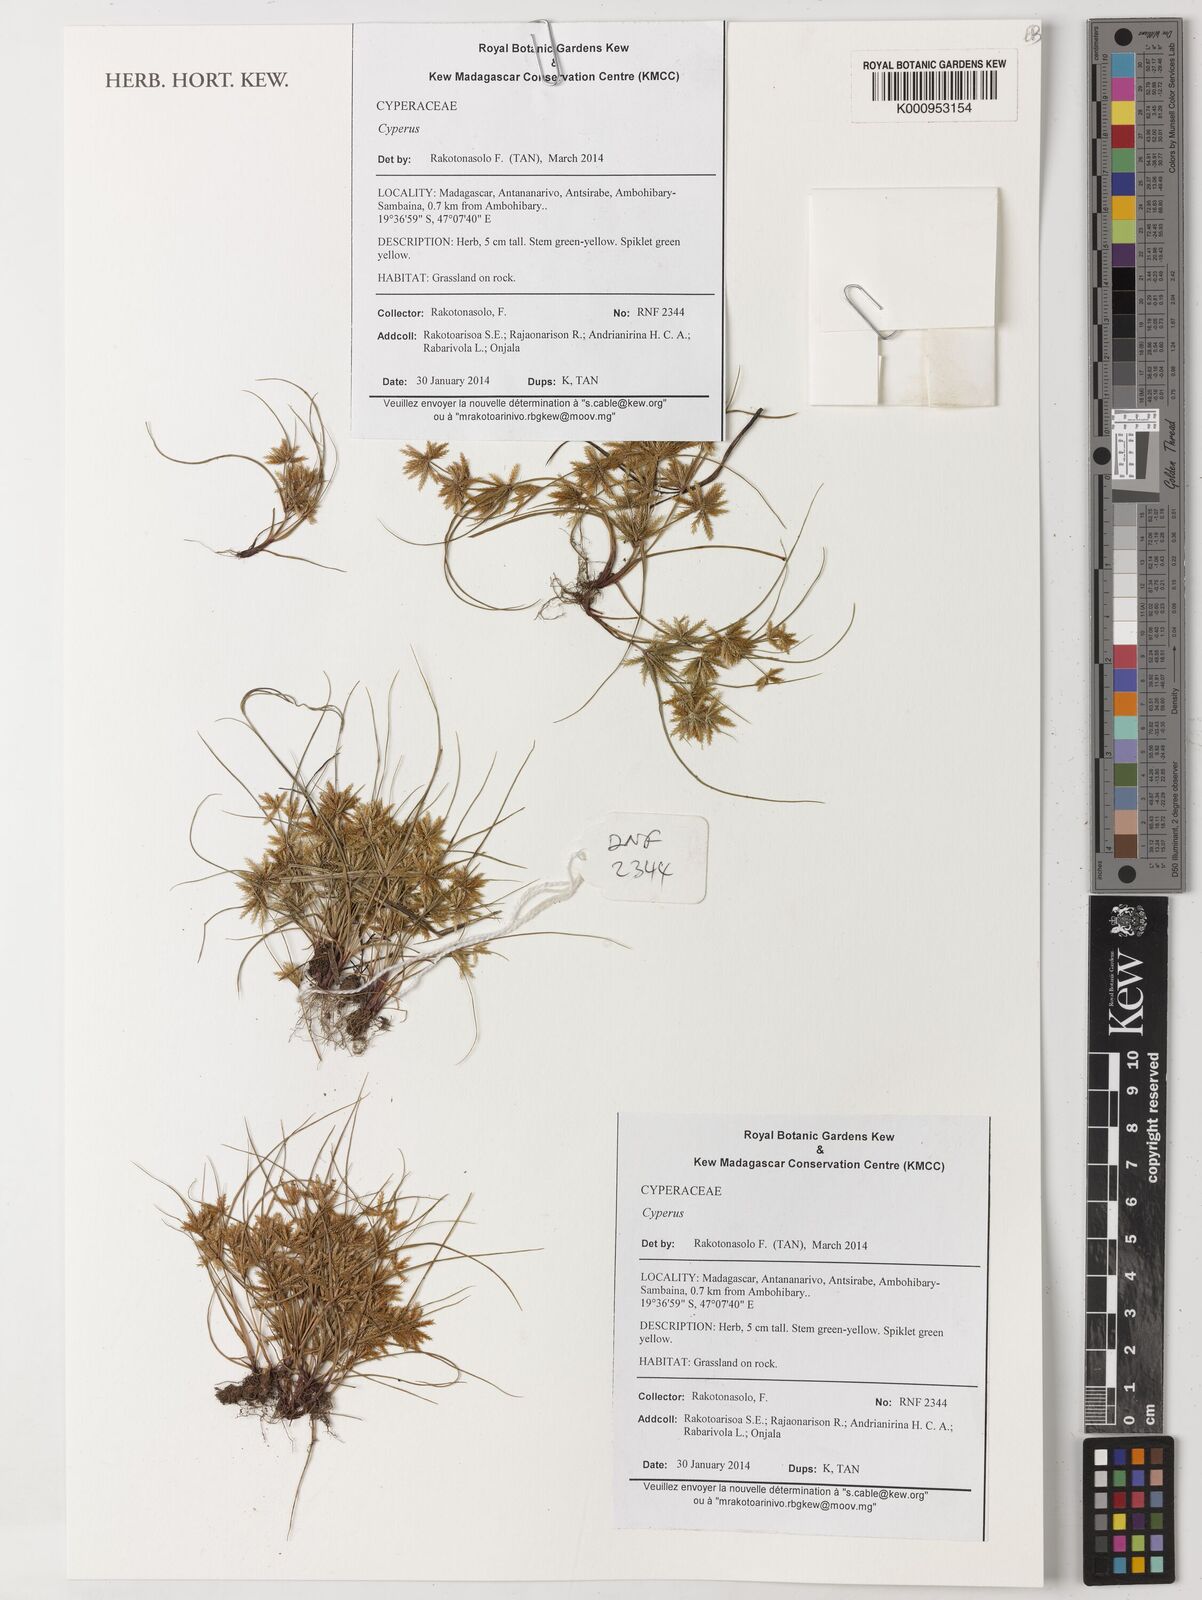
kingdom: Plantae
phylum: Tracheophyta
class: Liliopsida
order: Poales
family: Cyperaceae
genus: Cyperus
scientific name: Cyperus cuspidatus
